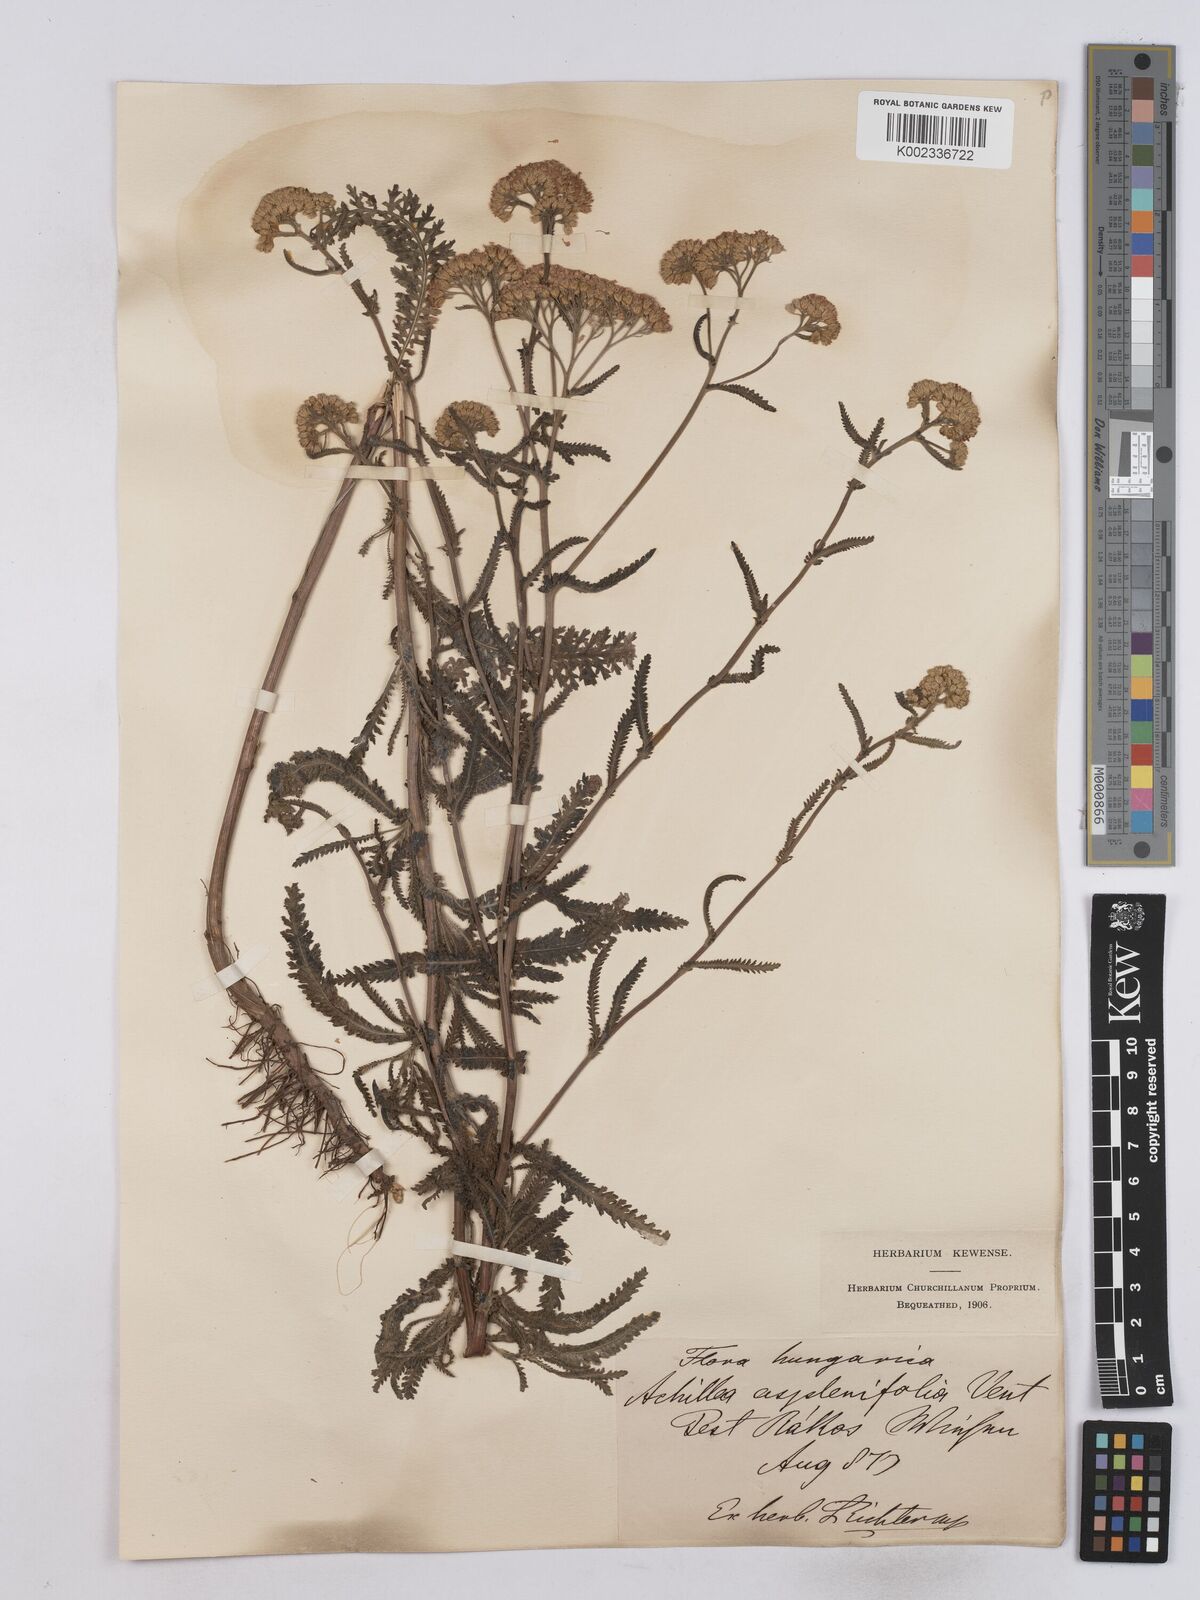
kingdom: Plantae
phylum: Tracheophyta
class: Magnoliopsida
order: Asterales
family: Asteraceae
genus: Achillea
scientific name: Achillea aspleniifolia
